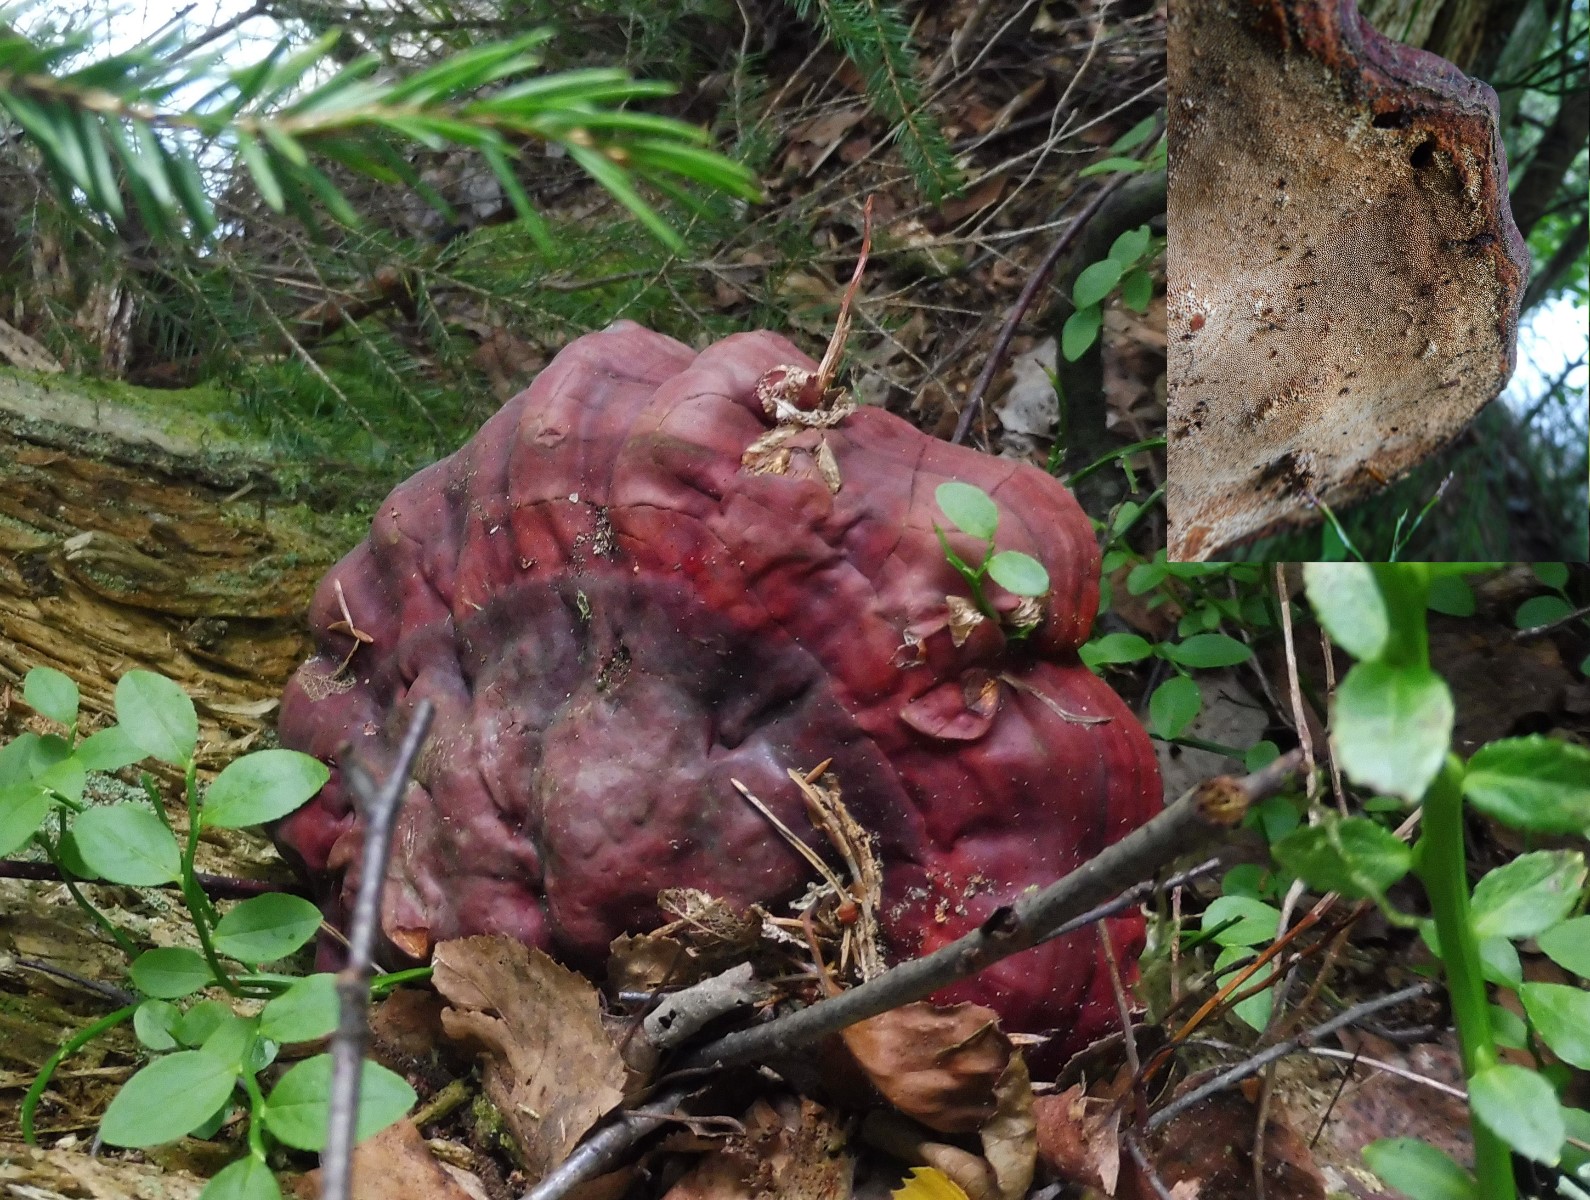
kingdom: Fungi
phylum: Basidiomycota
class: Agaricomycetes
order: Polyporales
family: Polyporaceae
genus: Ganoderma
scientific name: Ganoderma lucidum
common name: skinnende lakporesvamp
